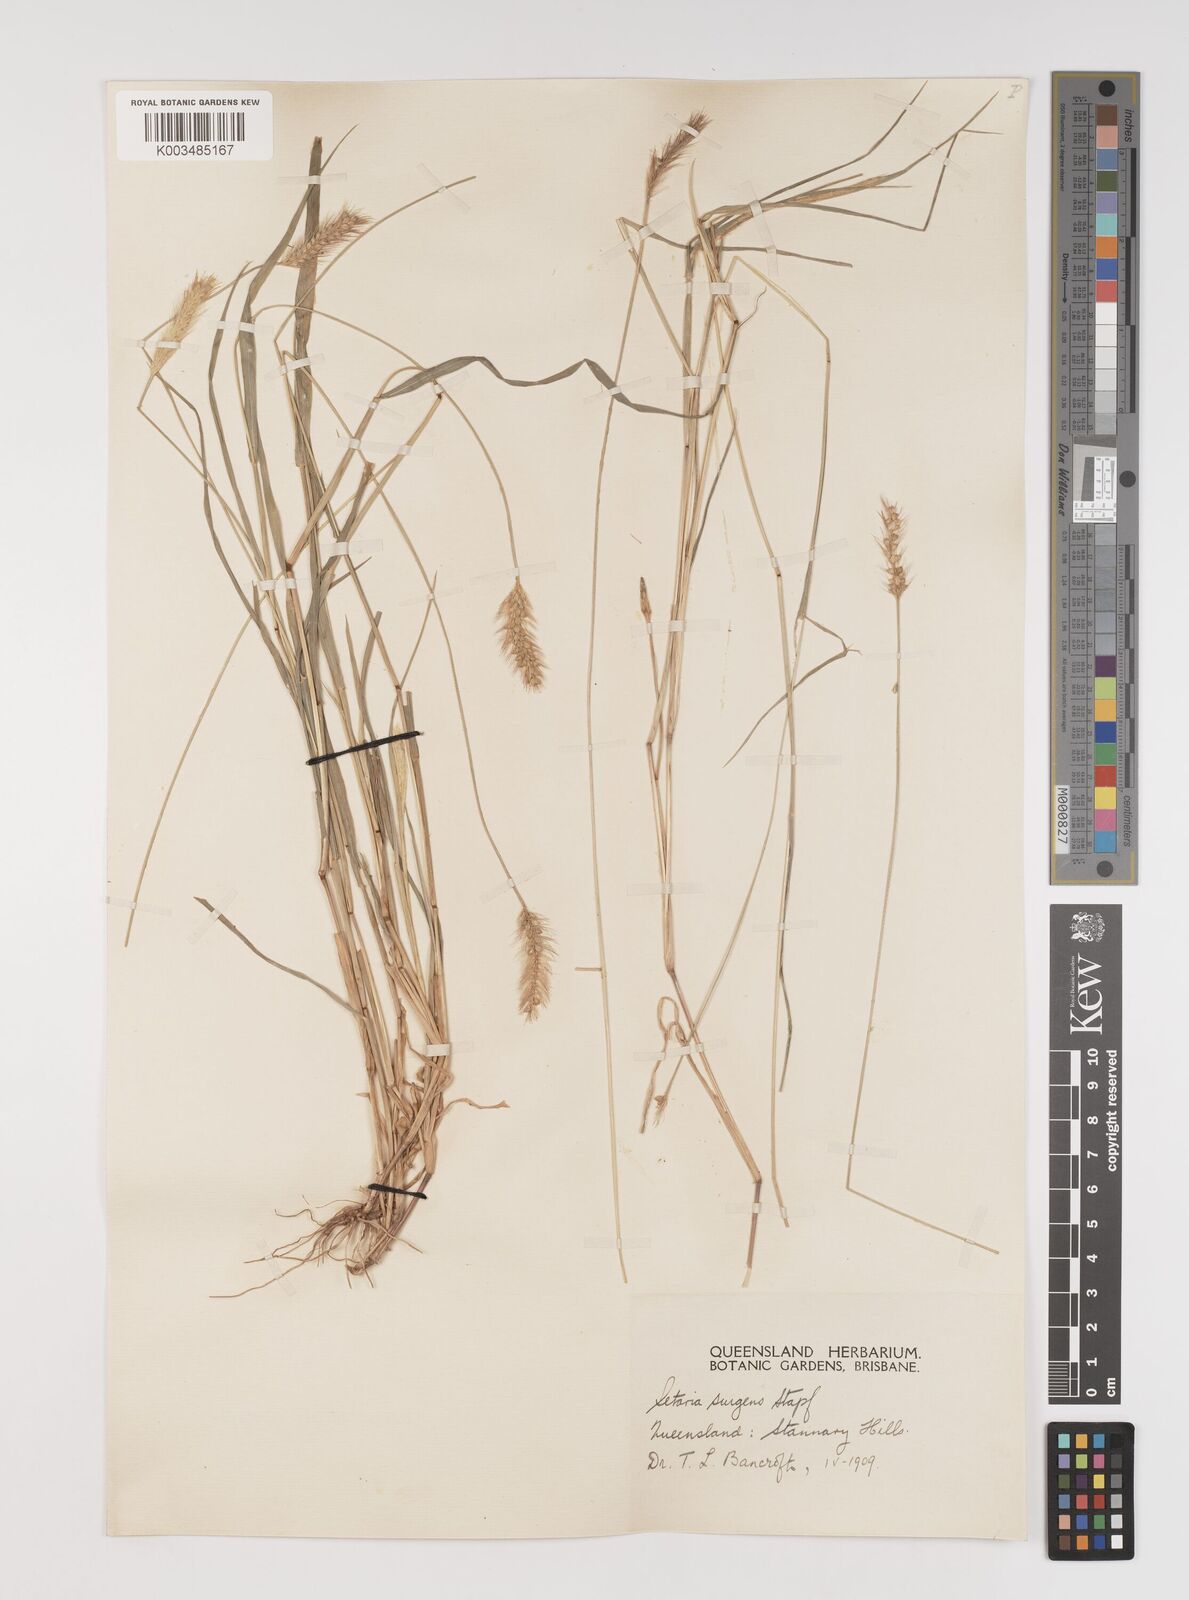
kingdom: Plantae
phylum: Tracheophyta
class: Liliopsida
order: Poales
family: Poaceae
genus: Setaria
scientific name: Setaria brownii
